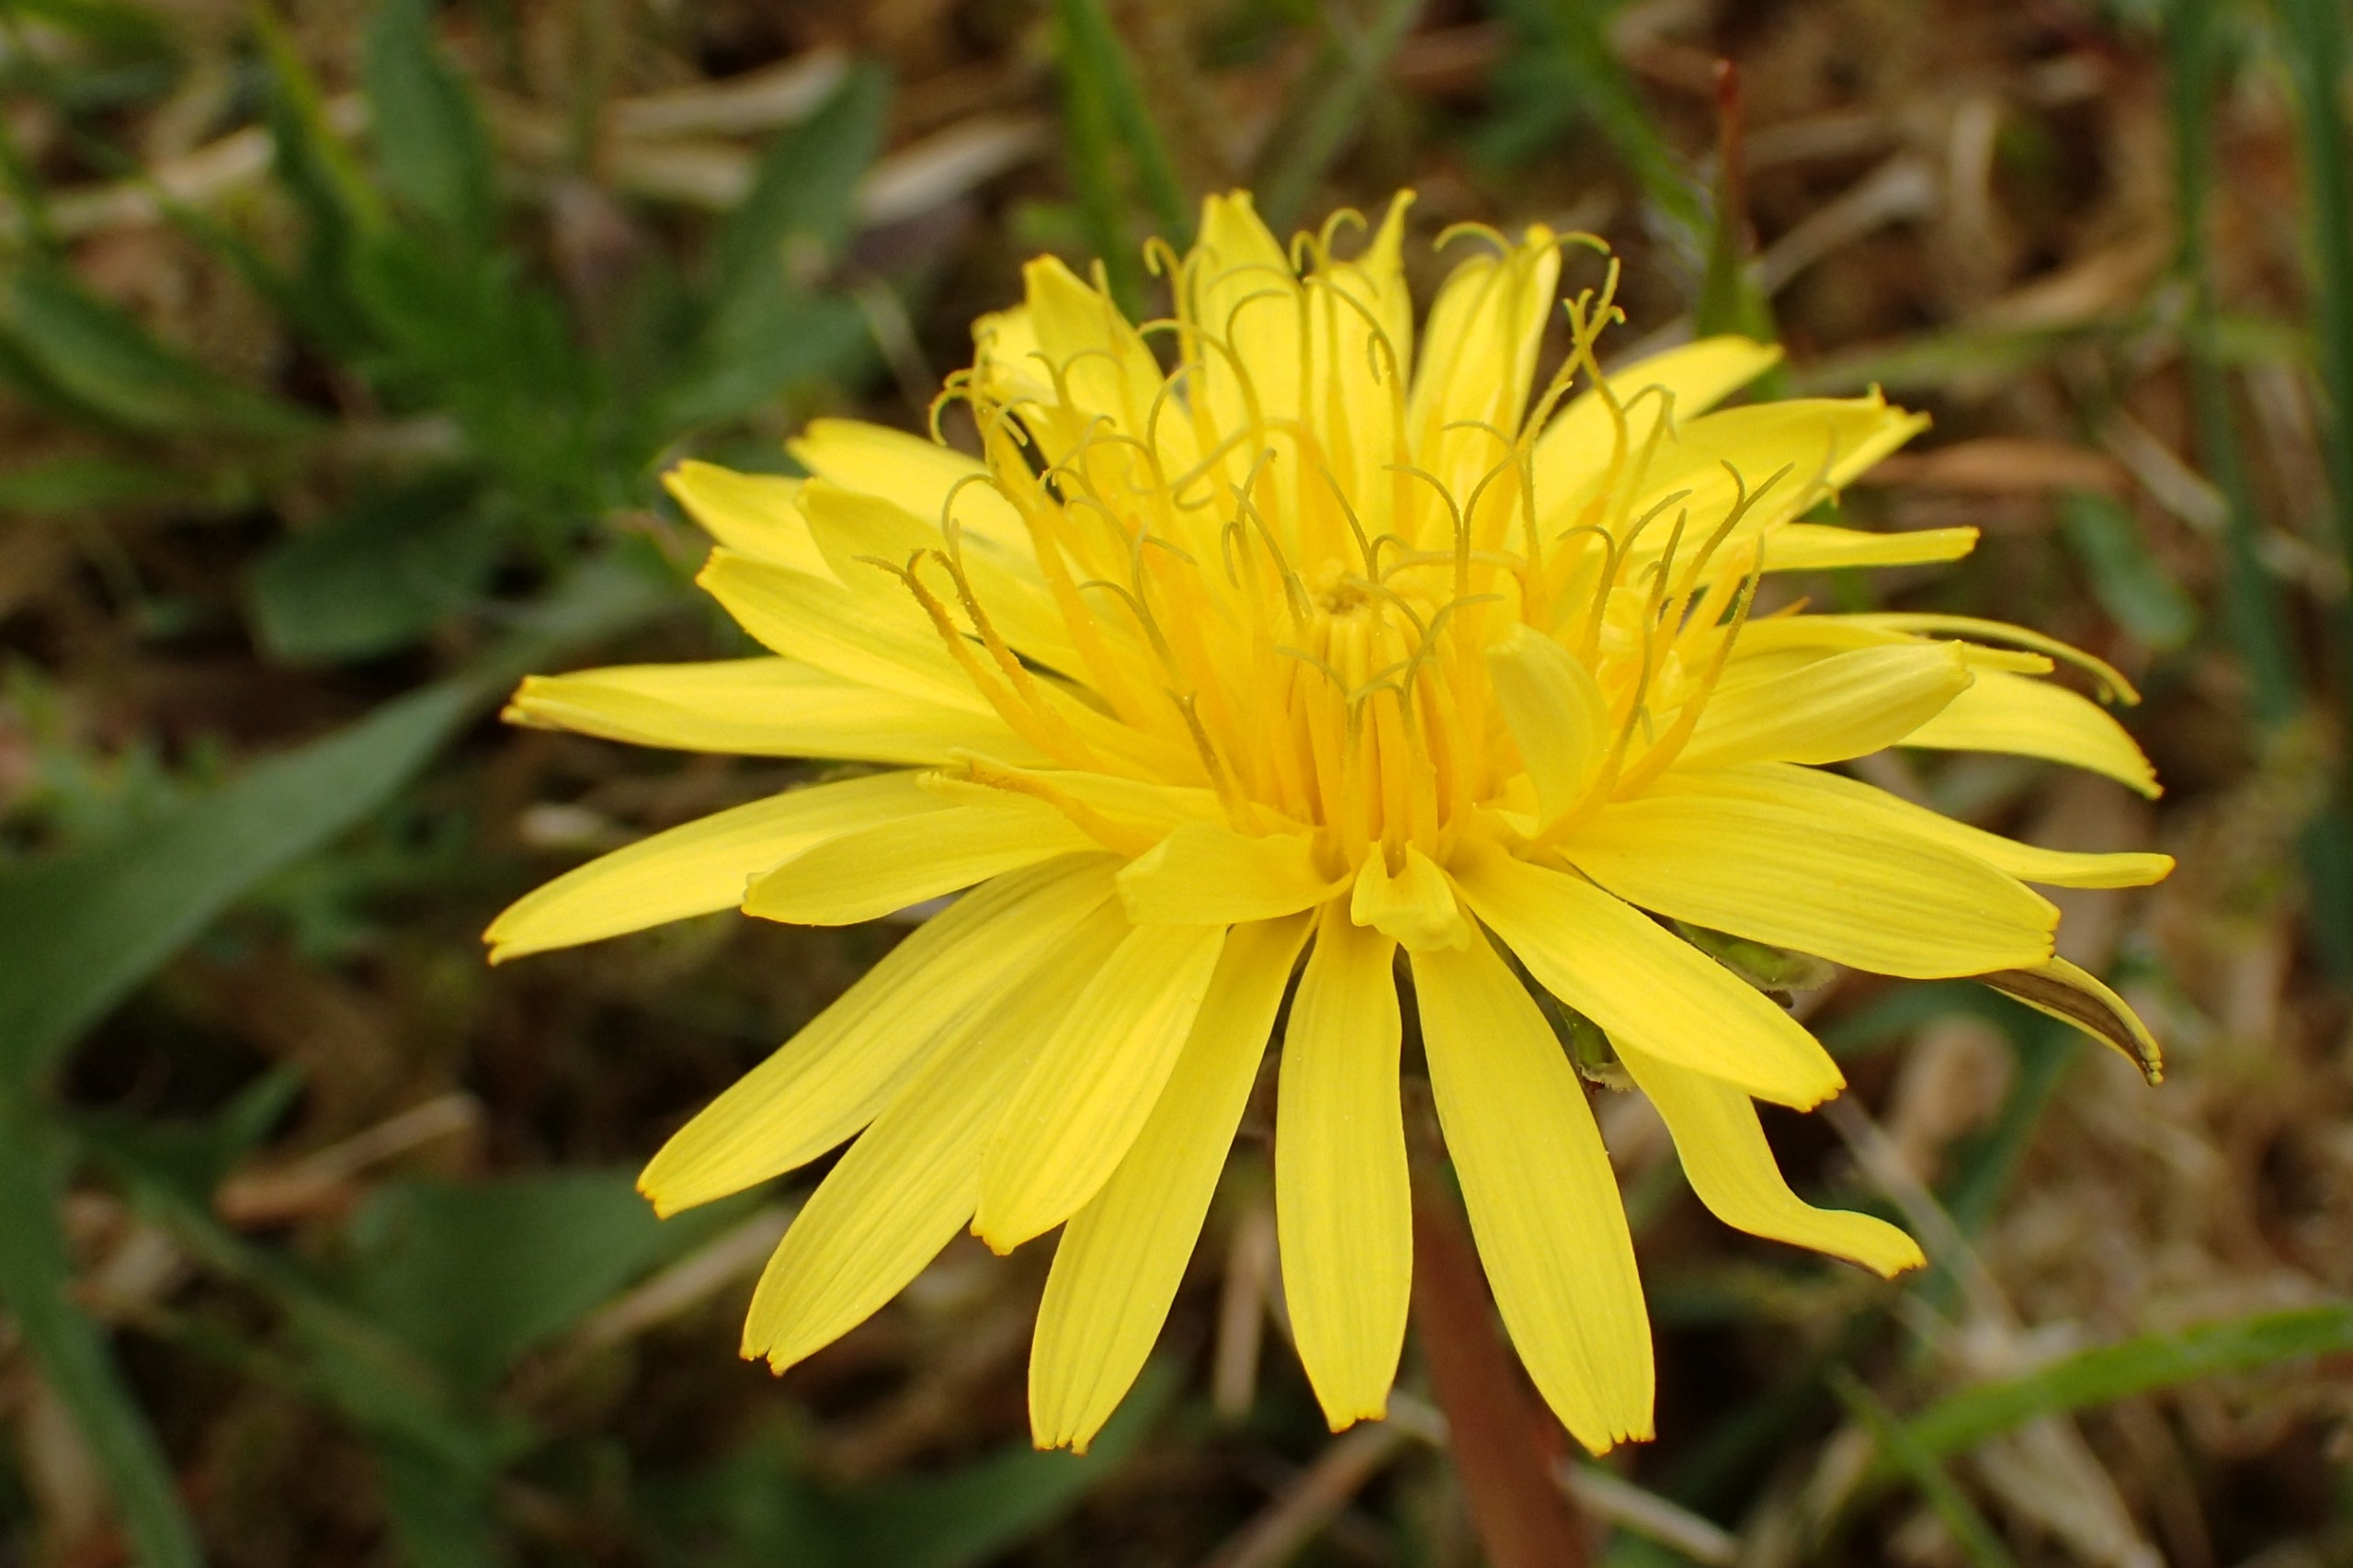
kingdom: Plantae
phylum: Tracheophyta
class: Magnoliopsida
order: Asterales
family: Asteraceae
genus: Taraxacum
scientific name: Taraxacum lacistophyllum
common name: Bakke-sandmælkebøtte
